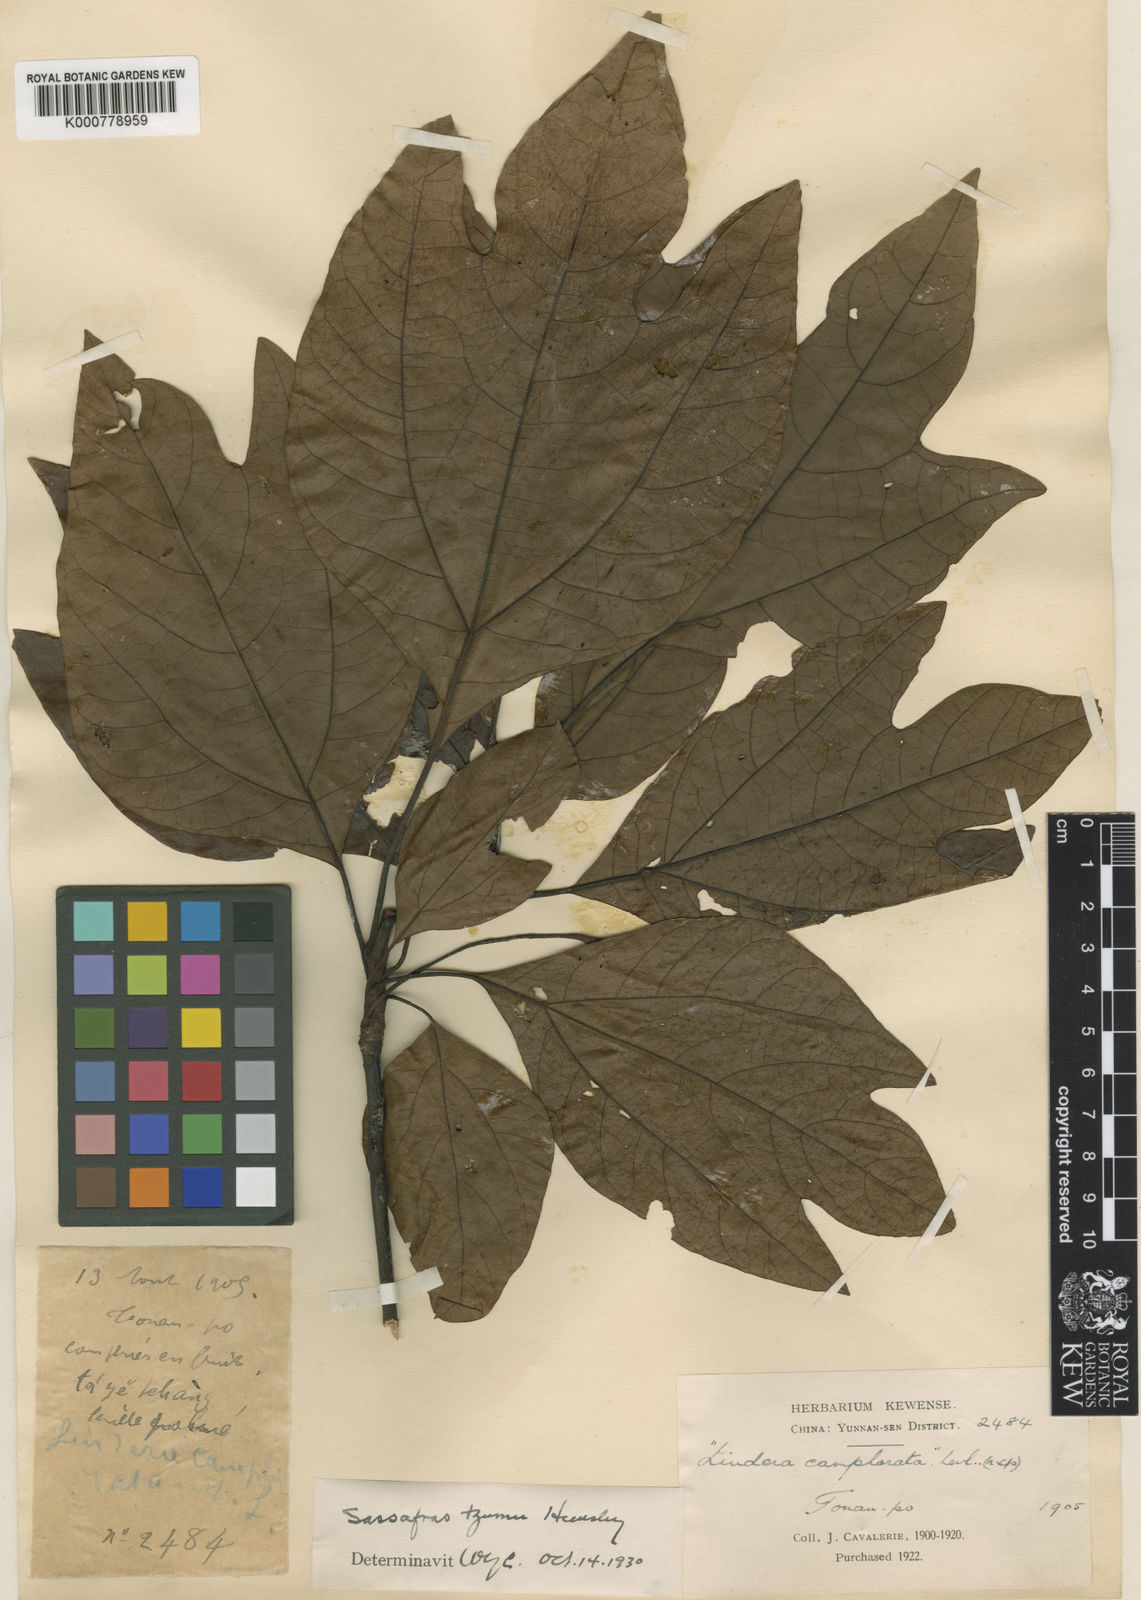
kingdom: Plantae
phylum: Tracheophyta
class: Magnoliopsida
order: Laurales
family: Lauraceae
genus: Sassafras
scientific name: Sassafras tzumu
